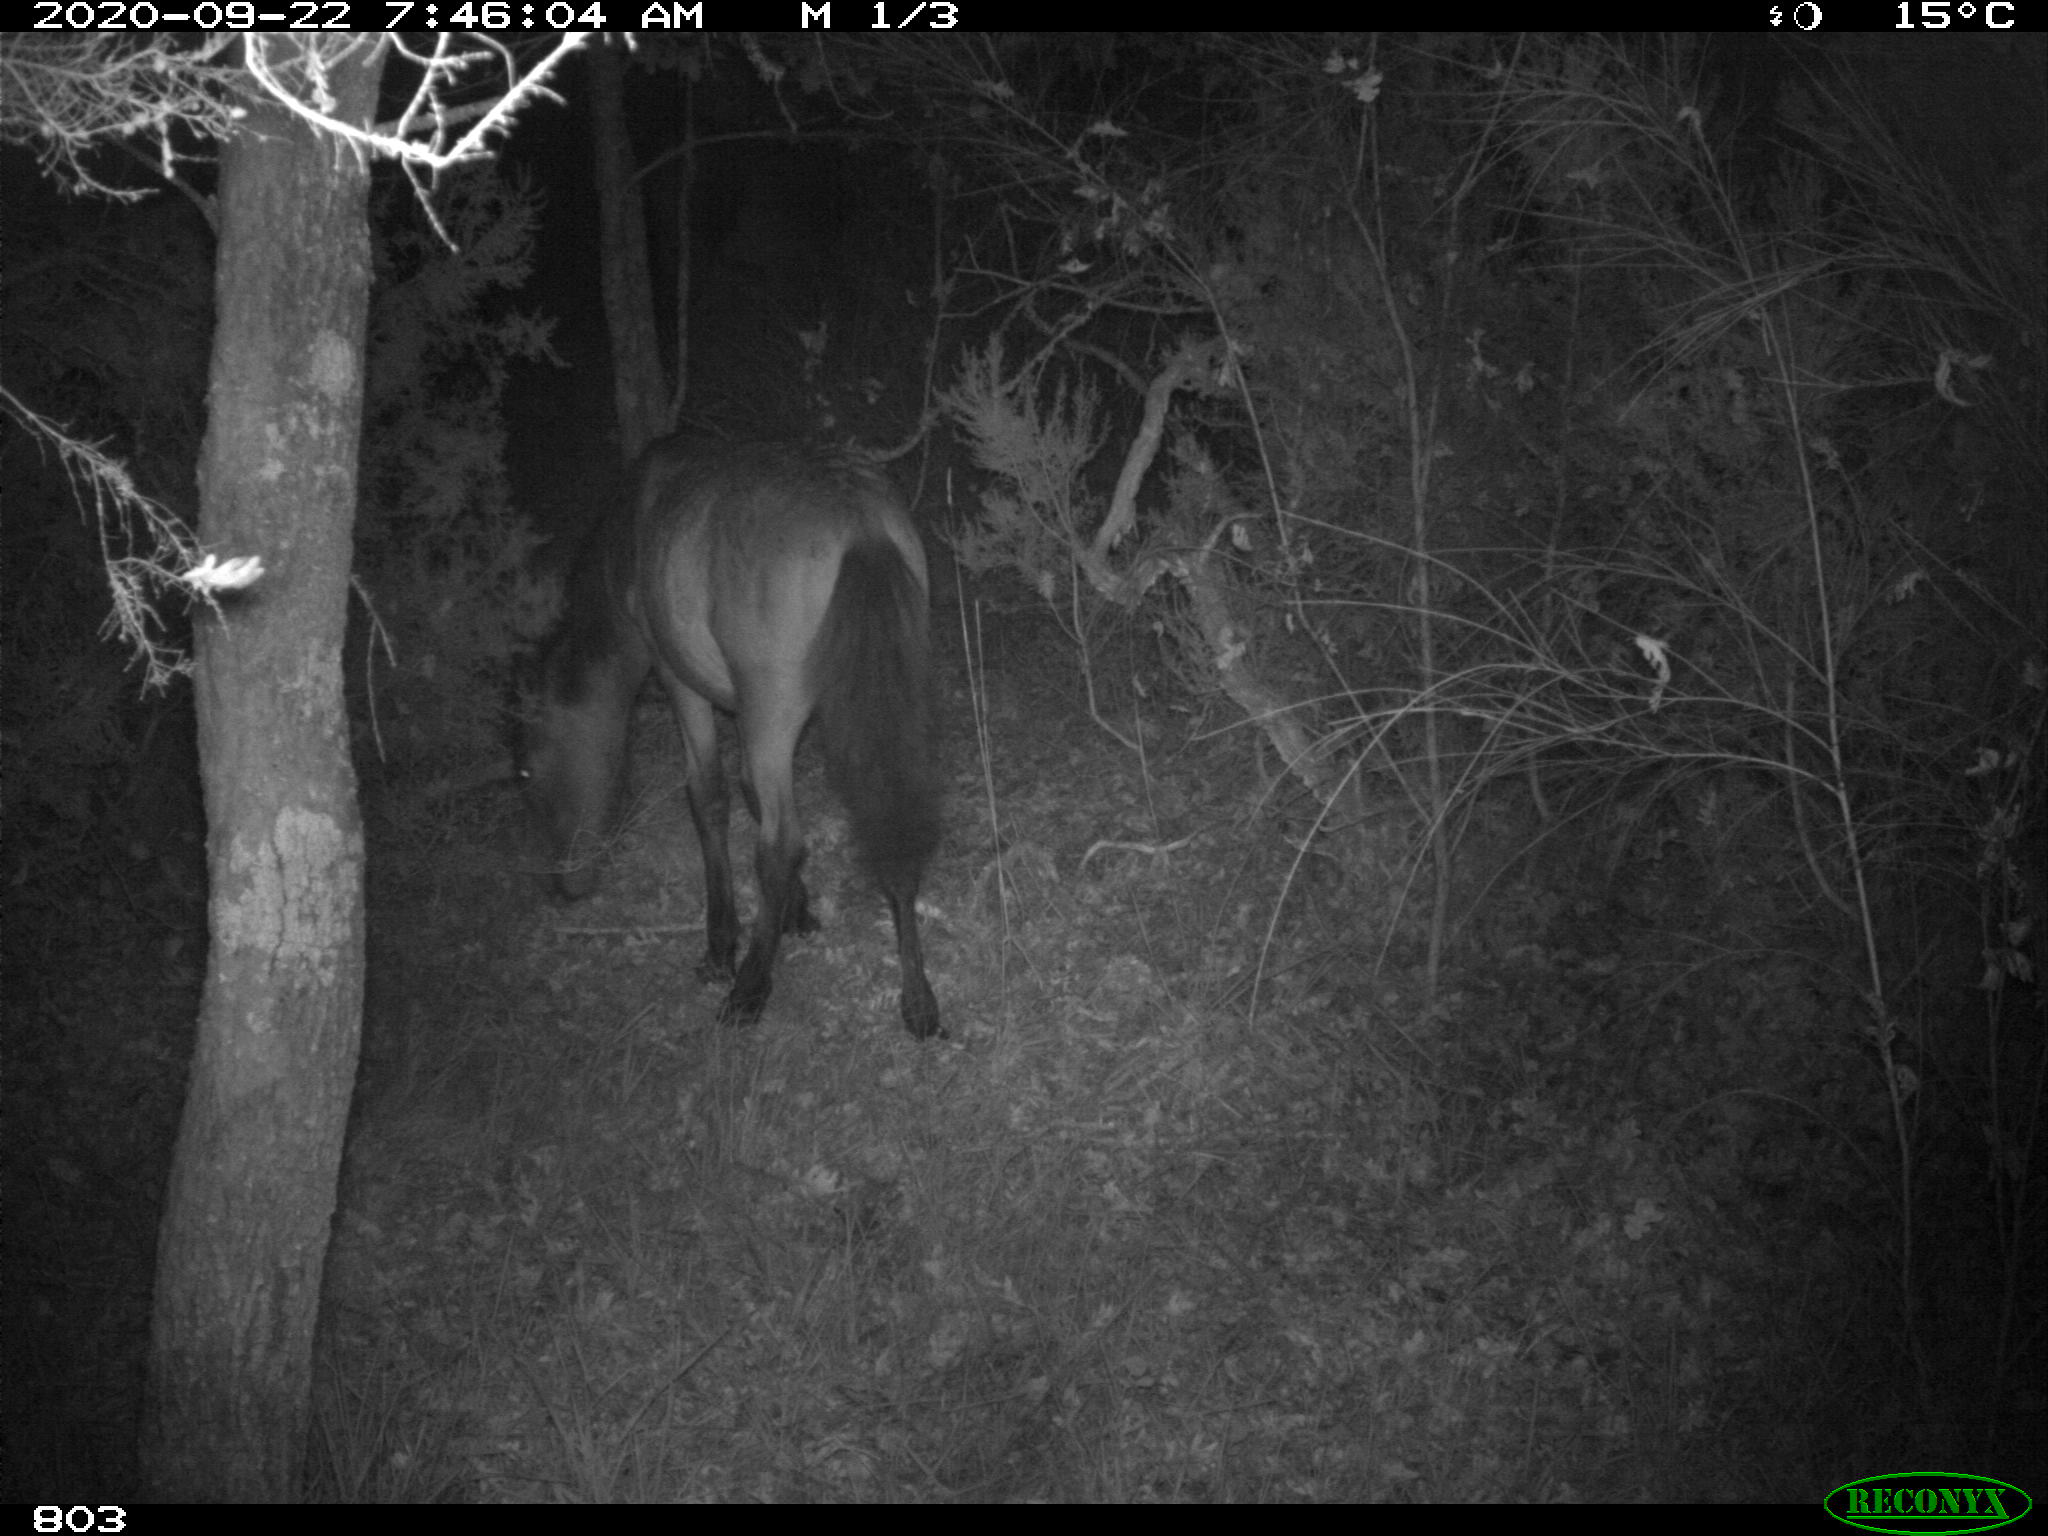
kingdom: Animalia
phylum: Chordata
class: Mammalia
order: Perissodactyla
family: Equidae
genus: Equus
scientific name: Equus caballus
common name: Horse
